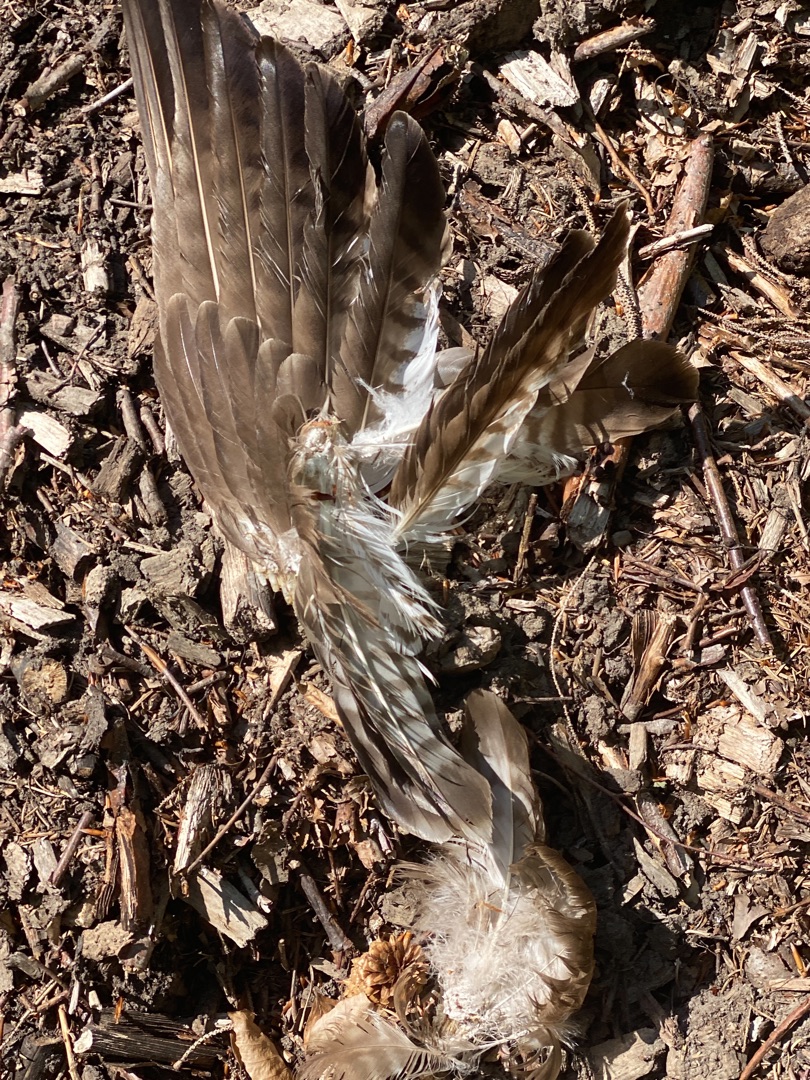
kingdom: Animalia
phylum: Chordata
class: Aves
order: Accipitriformes
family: Accipitridae
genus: Buteo
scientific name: Buteo buteo
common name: Musvåge
